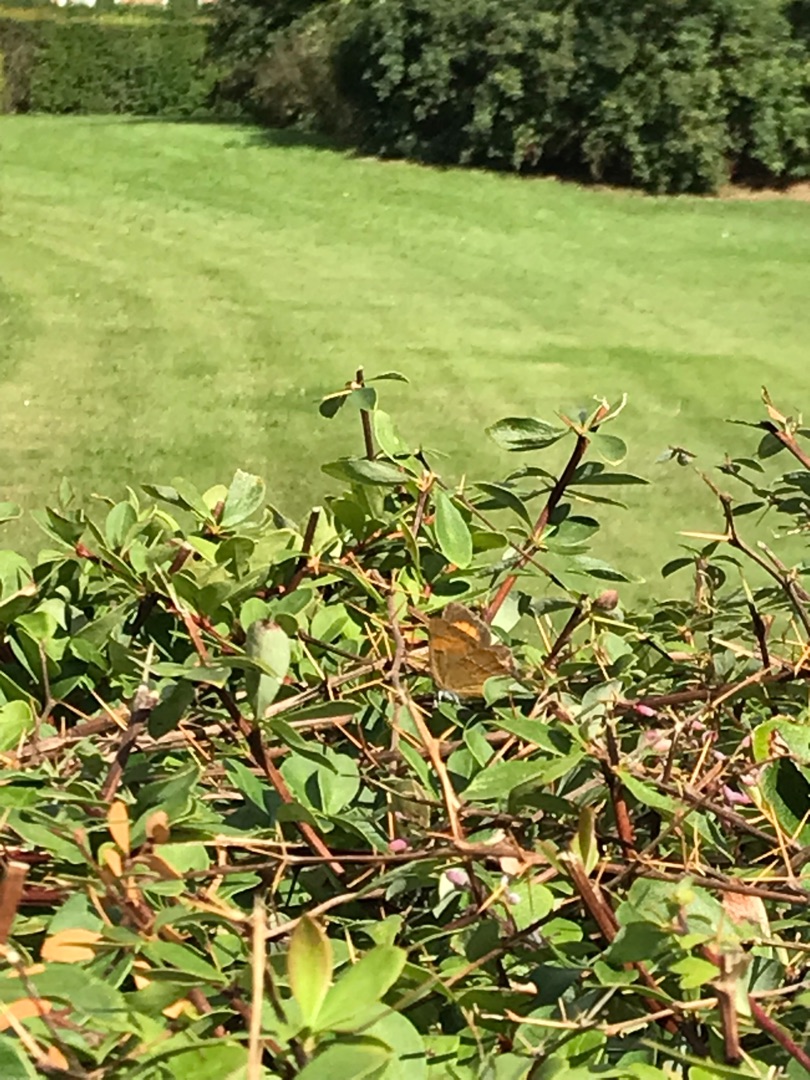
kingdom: Animalia
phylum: Arthropoda
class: Insecta
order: Lepidoptera
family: Lycaenidae
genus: Thecla
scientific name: Thecla betulae
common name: Guldhale
